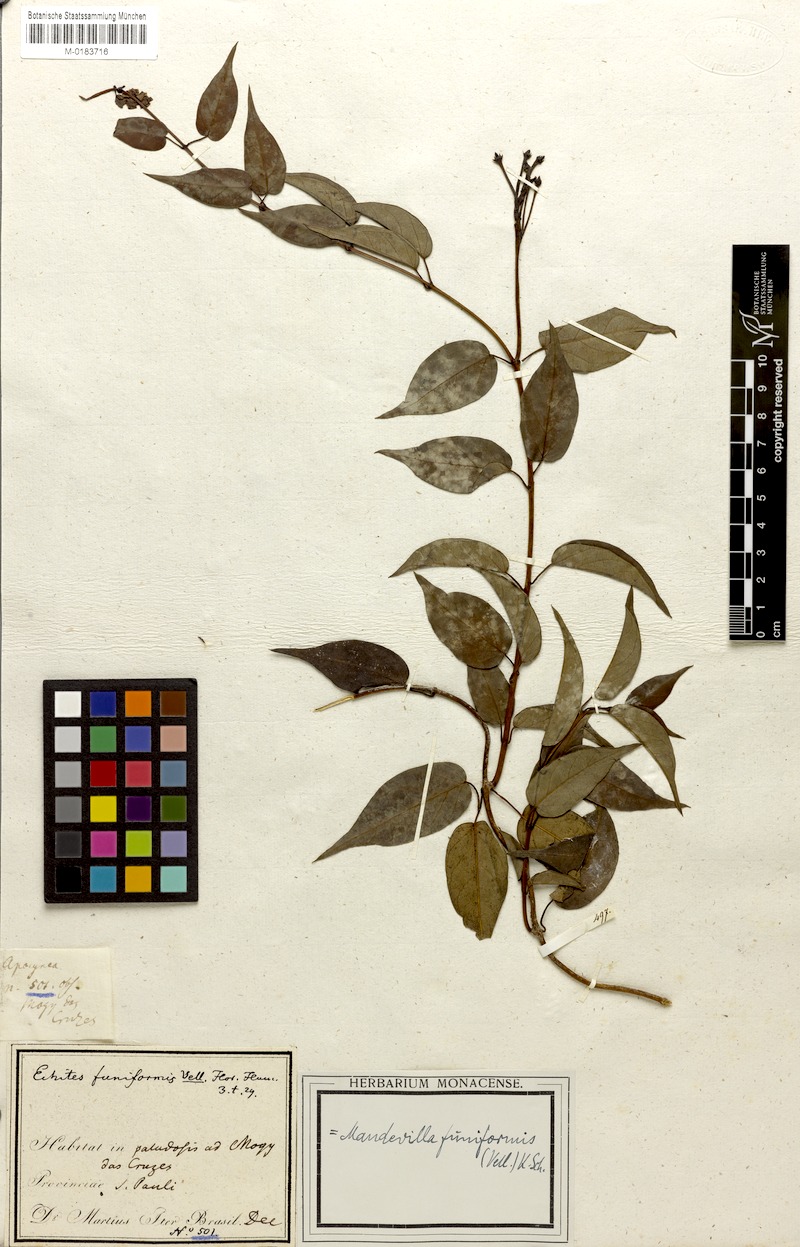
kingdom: Plantae
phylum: Tracheophyta
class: Magnoliopsida
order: Gentianales
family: Apocynaceae
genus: Mandevilla
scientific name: Mandevilla funiformis
